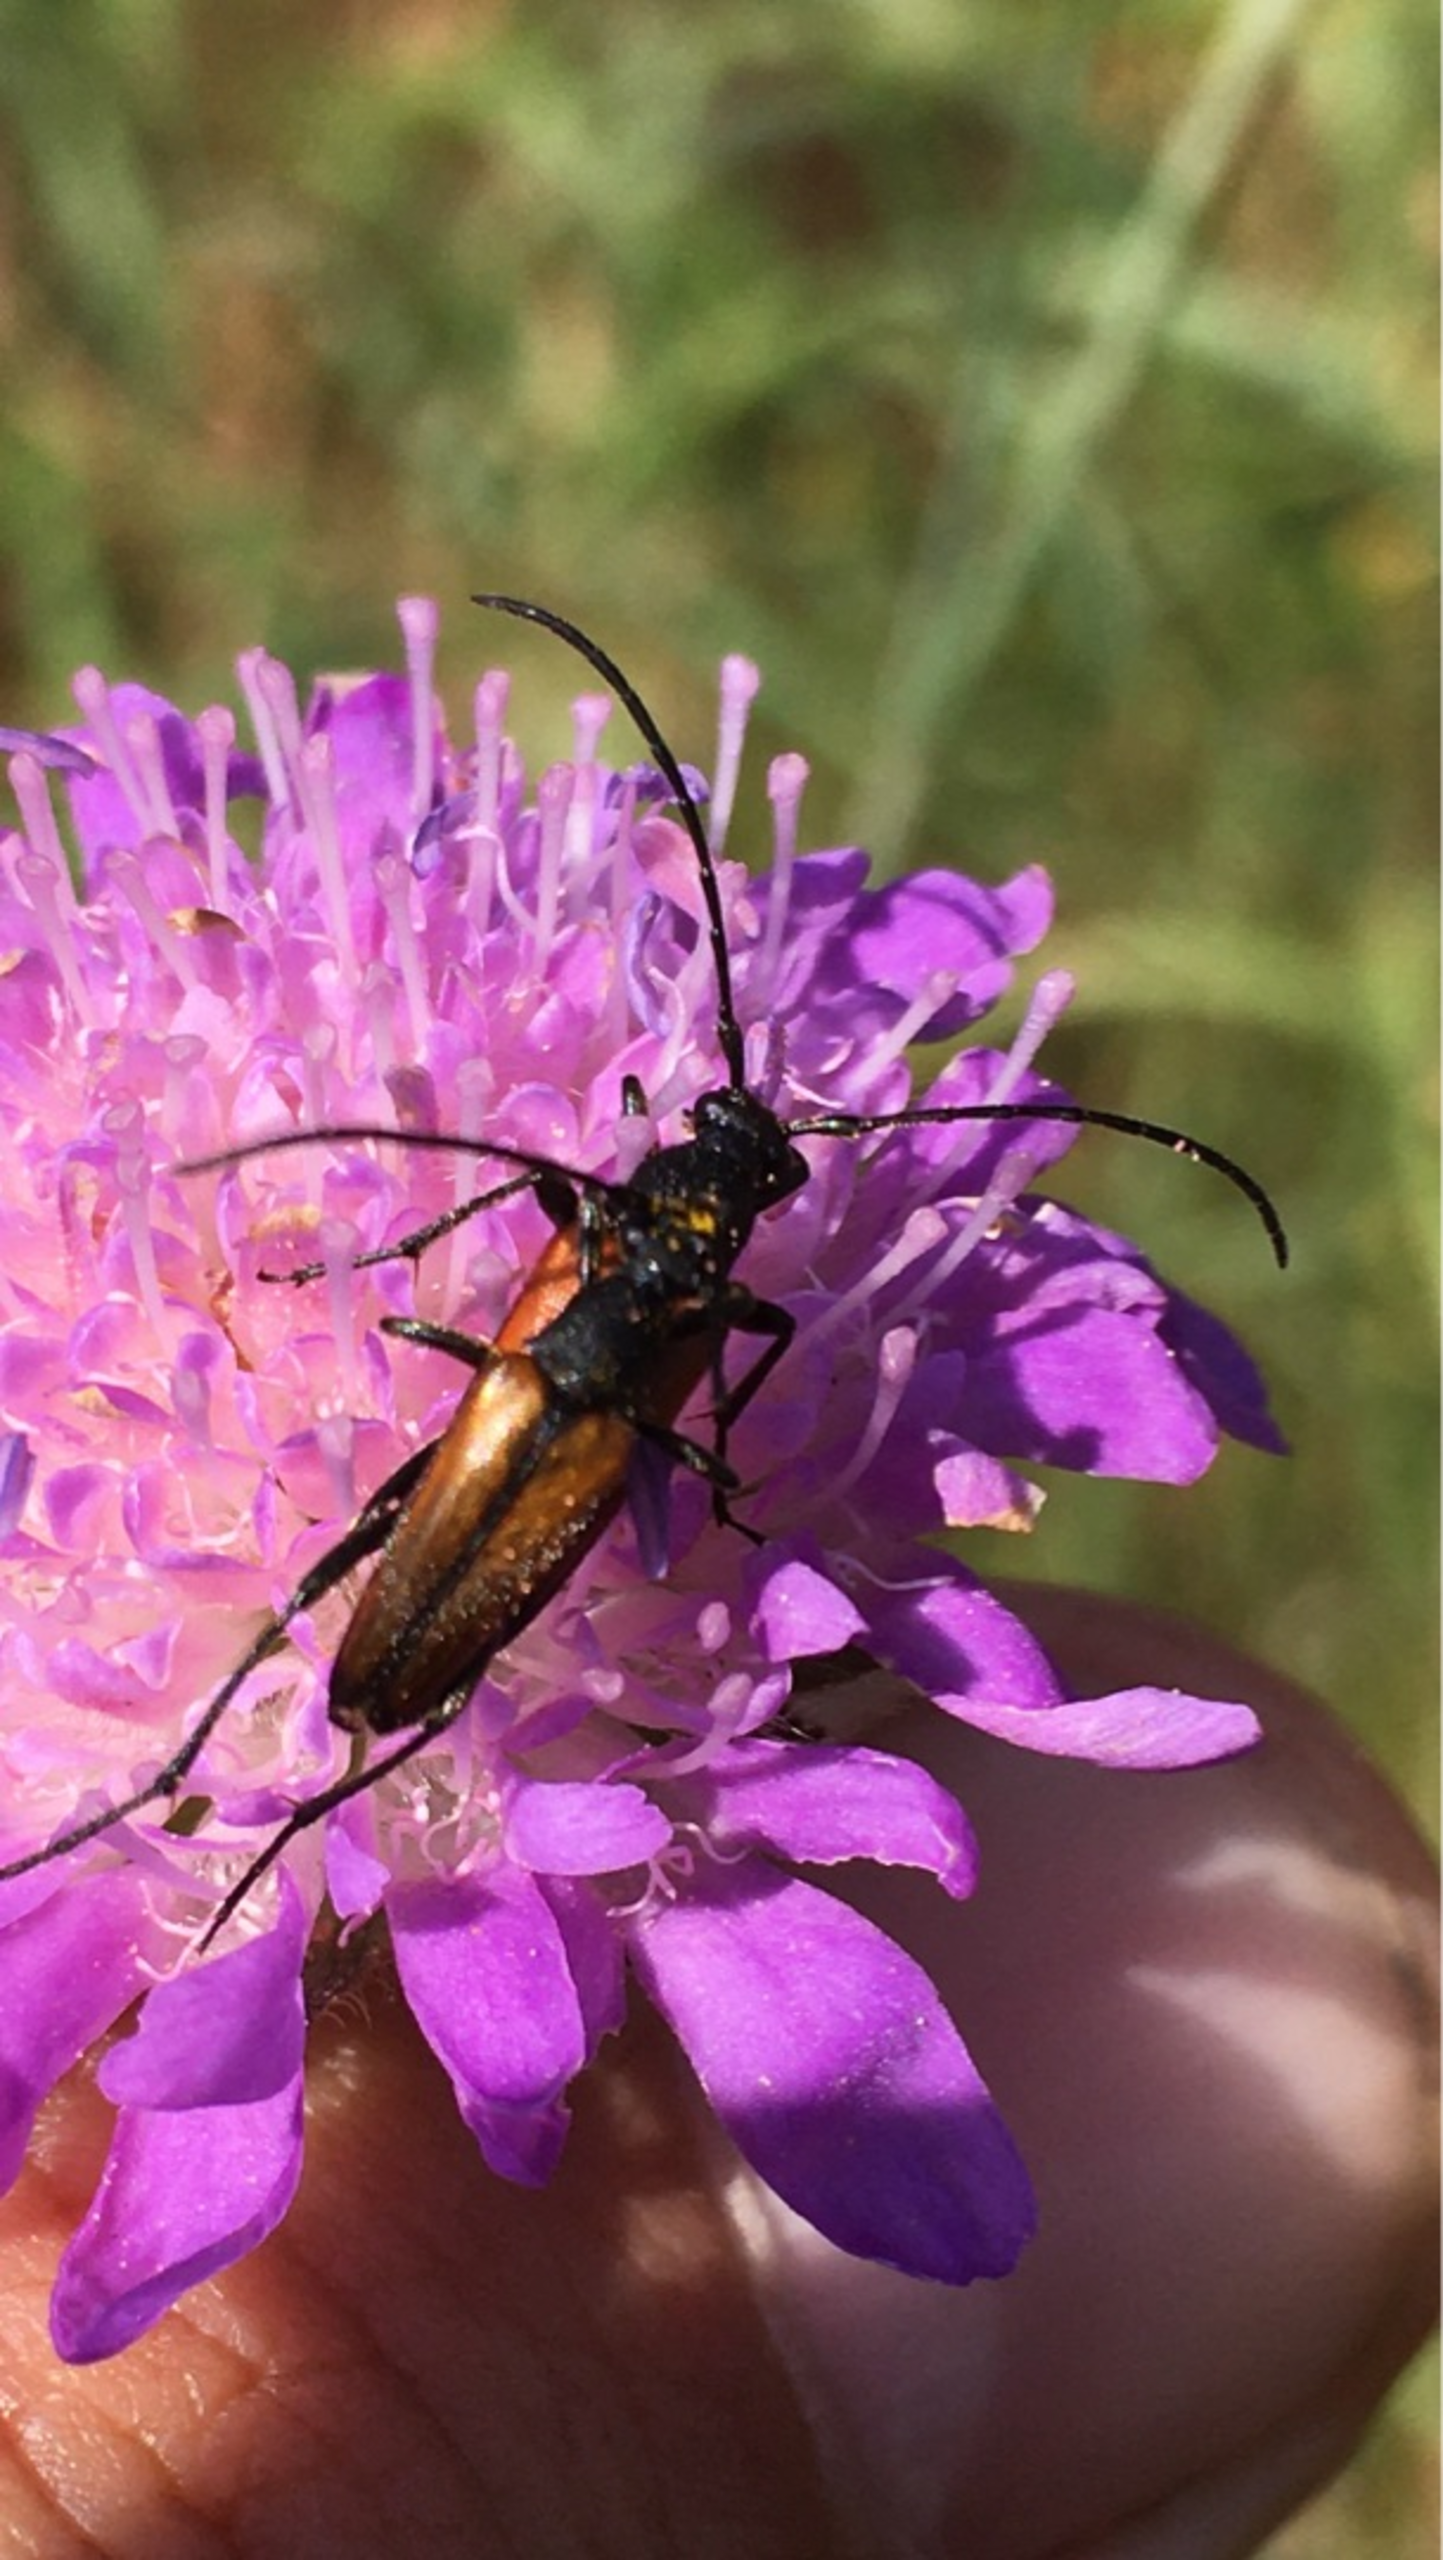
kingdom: Animalia
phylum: Arthropoda
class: Insecta
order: Coleoptera
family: Cerambycidae
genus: Stenurella
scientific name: Stenurella melanura
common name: Sortsømmet blomsterbuk
